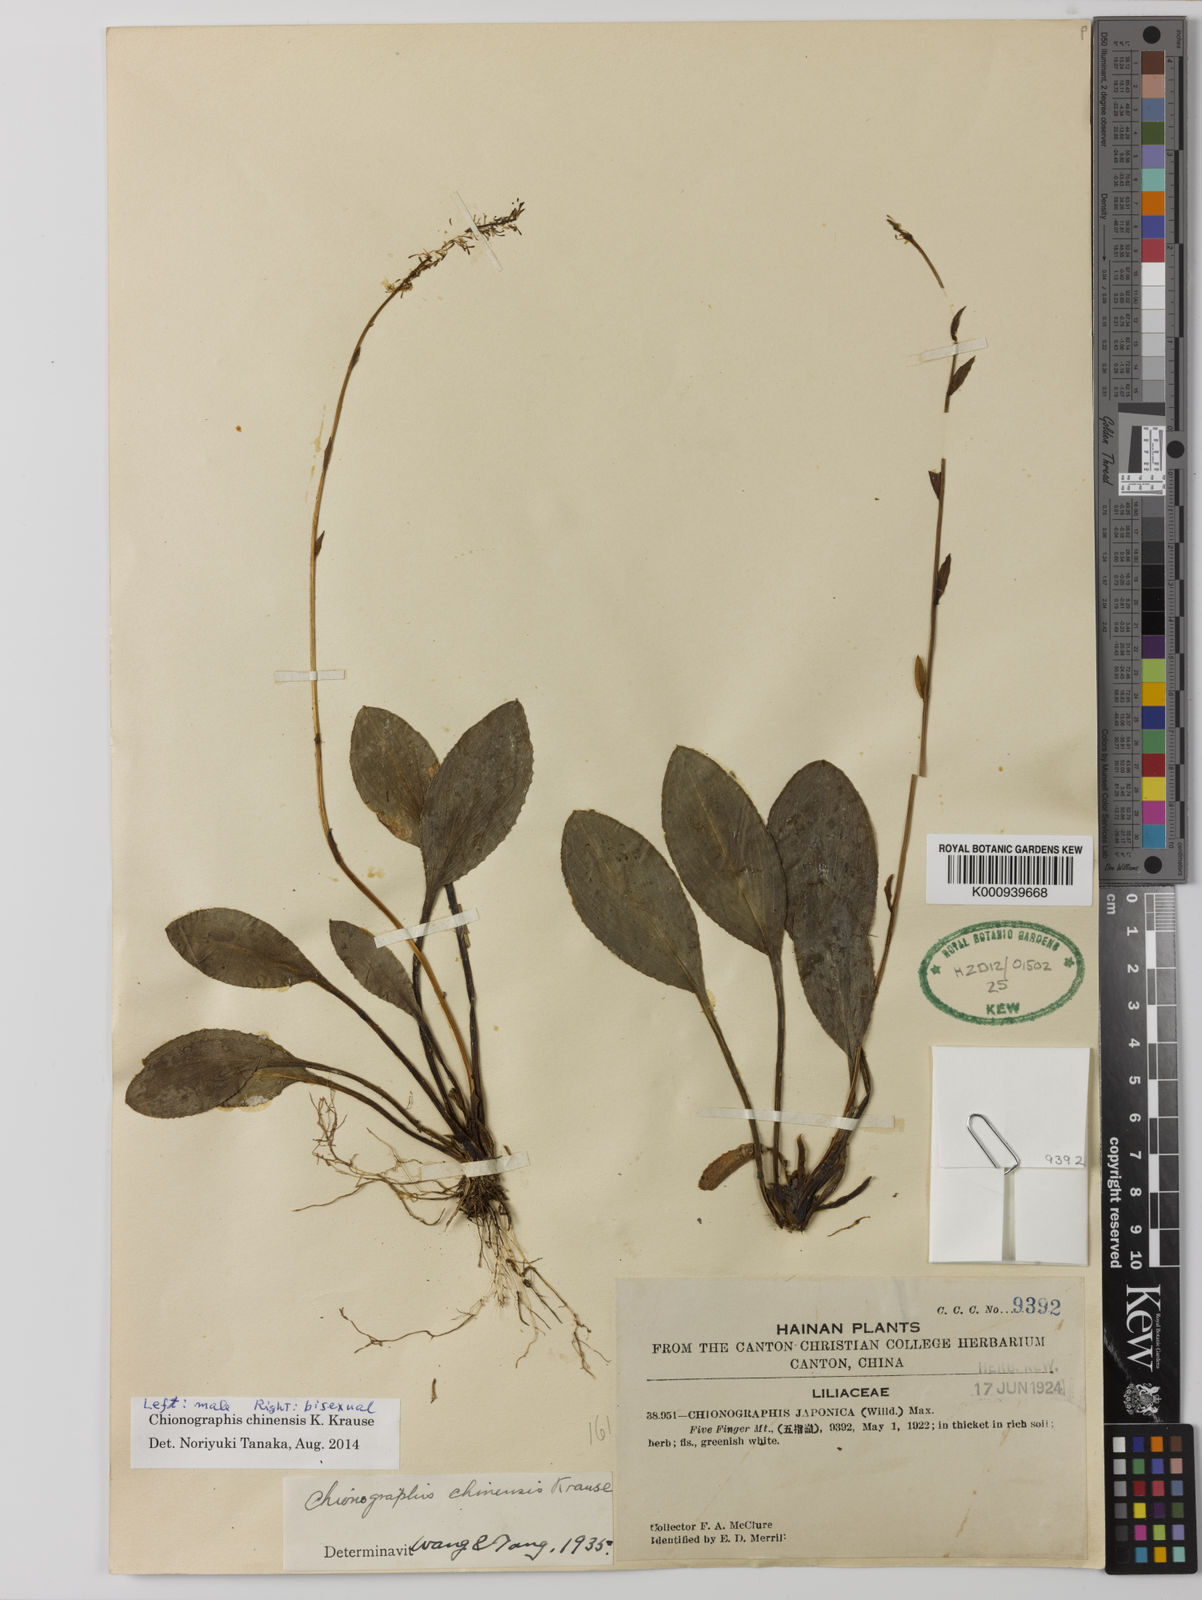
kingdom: Plantae
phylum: Tracheophyta
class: Liliopsida
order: Liliales
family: Melanthiaceae
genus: Chamaelirium
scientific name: Chamaelirium chinense
